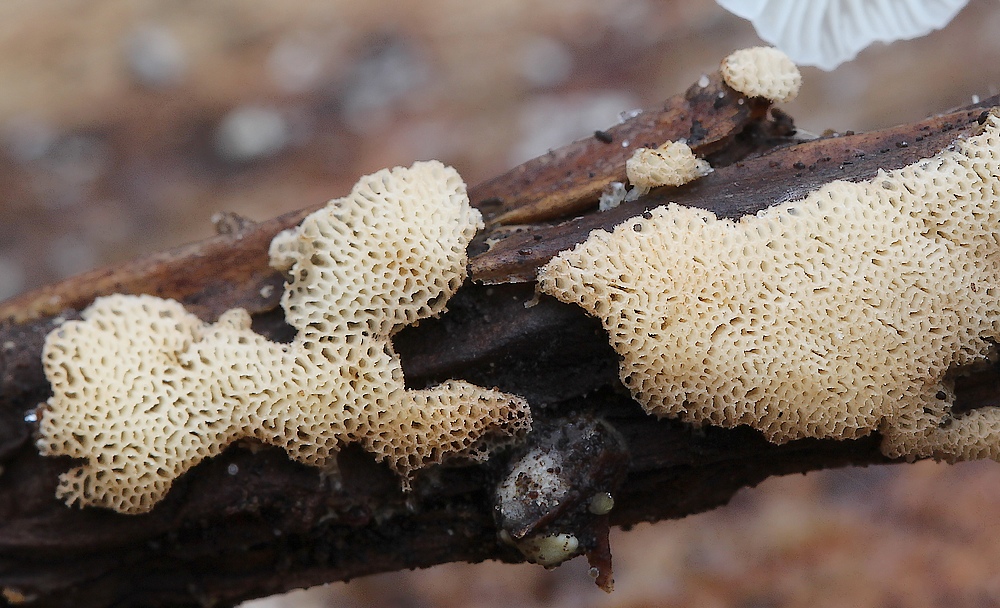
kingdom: Fungi
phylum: Basidiomycota
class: Agaricomycetes
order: Polyporales
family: Meripilaceae
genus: Rigidoporus
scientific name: Rigidoporus sanguinolentus
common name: blod-skorpeporesvamp
